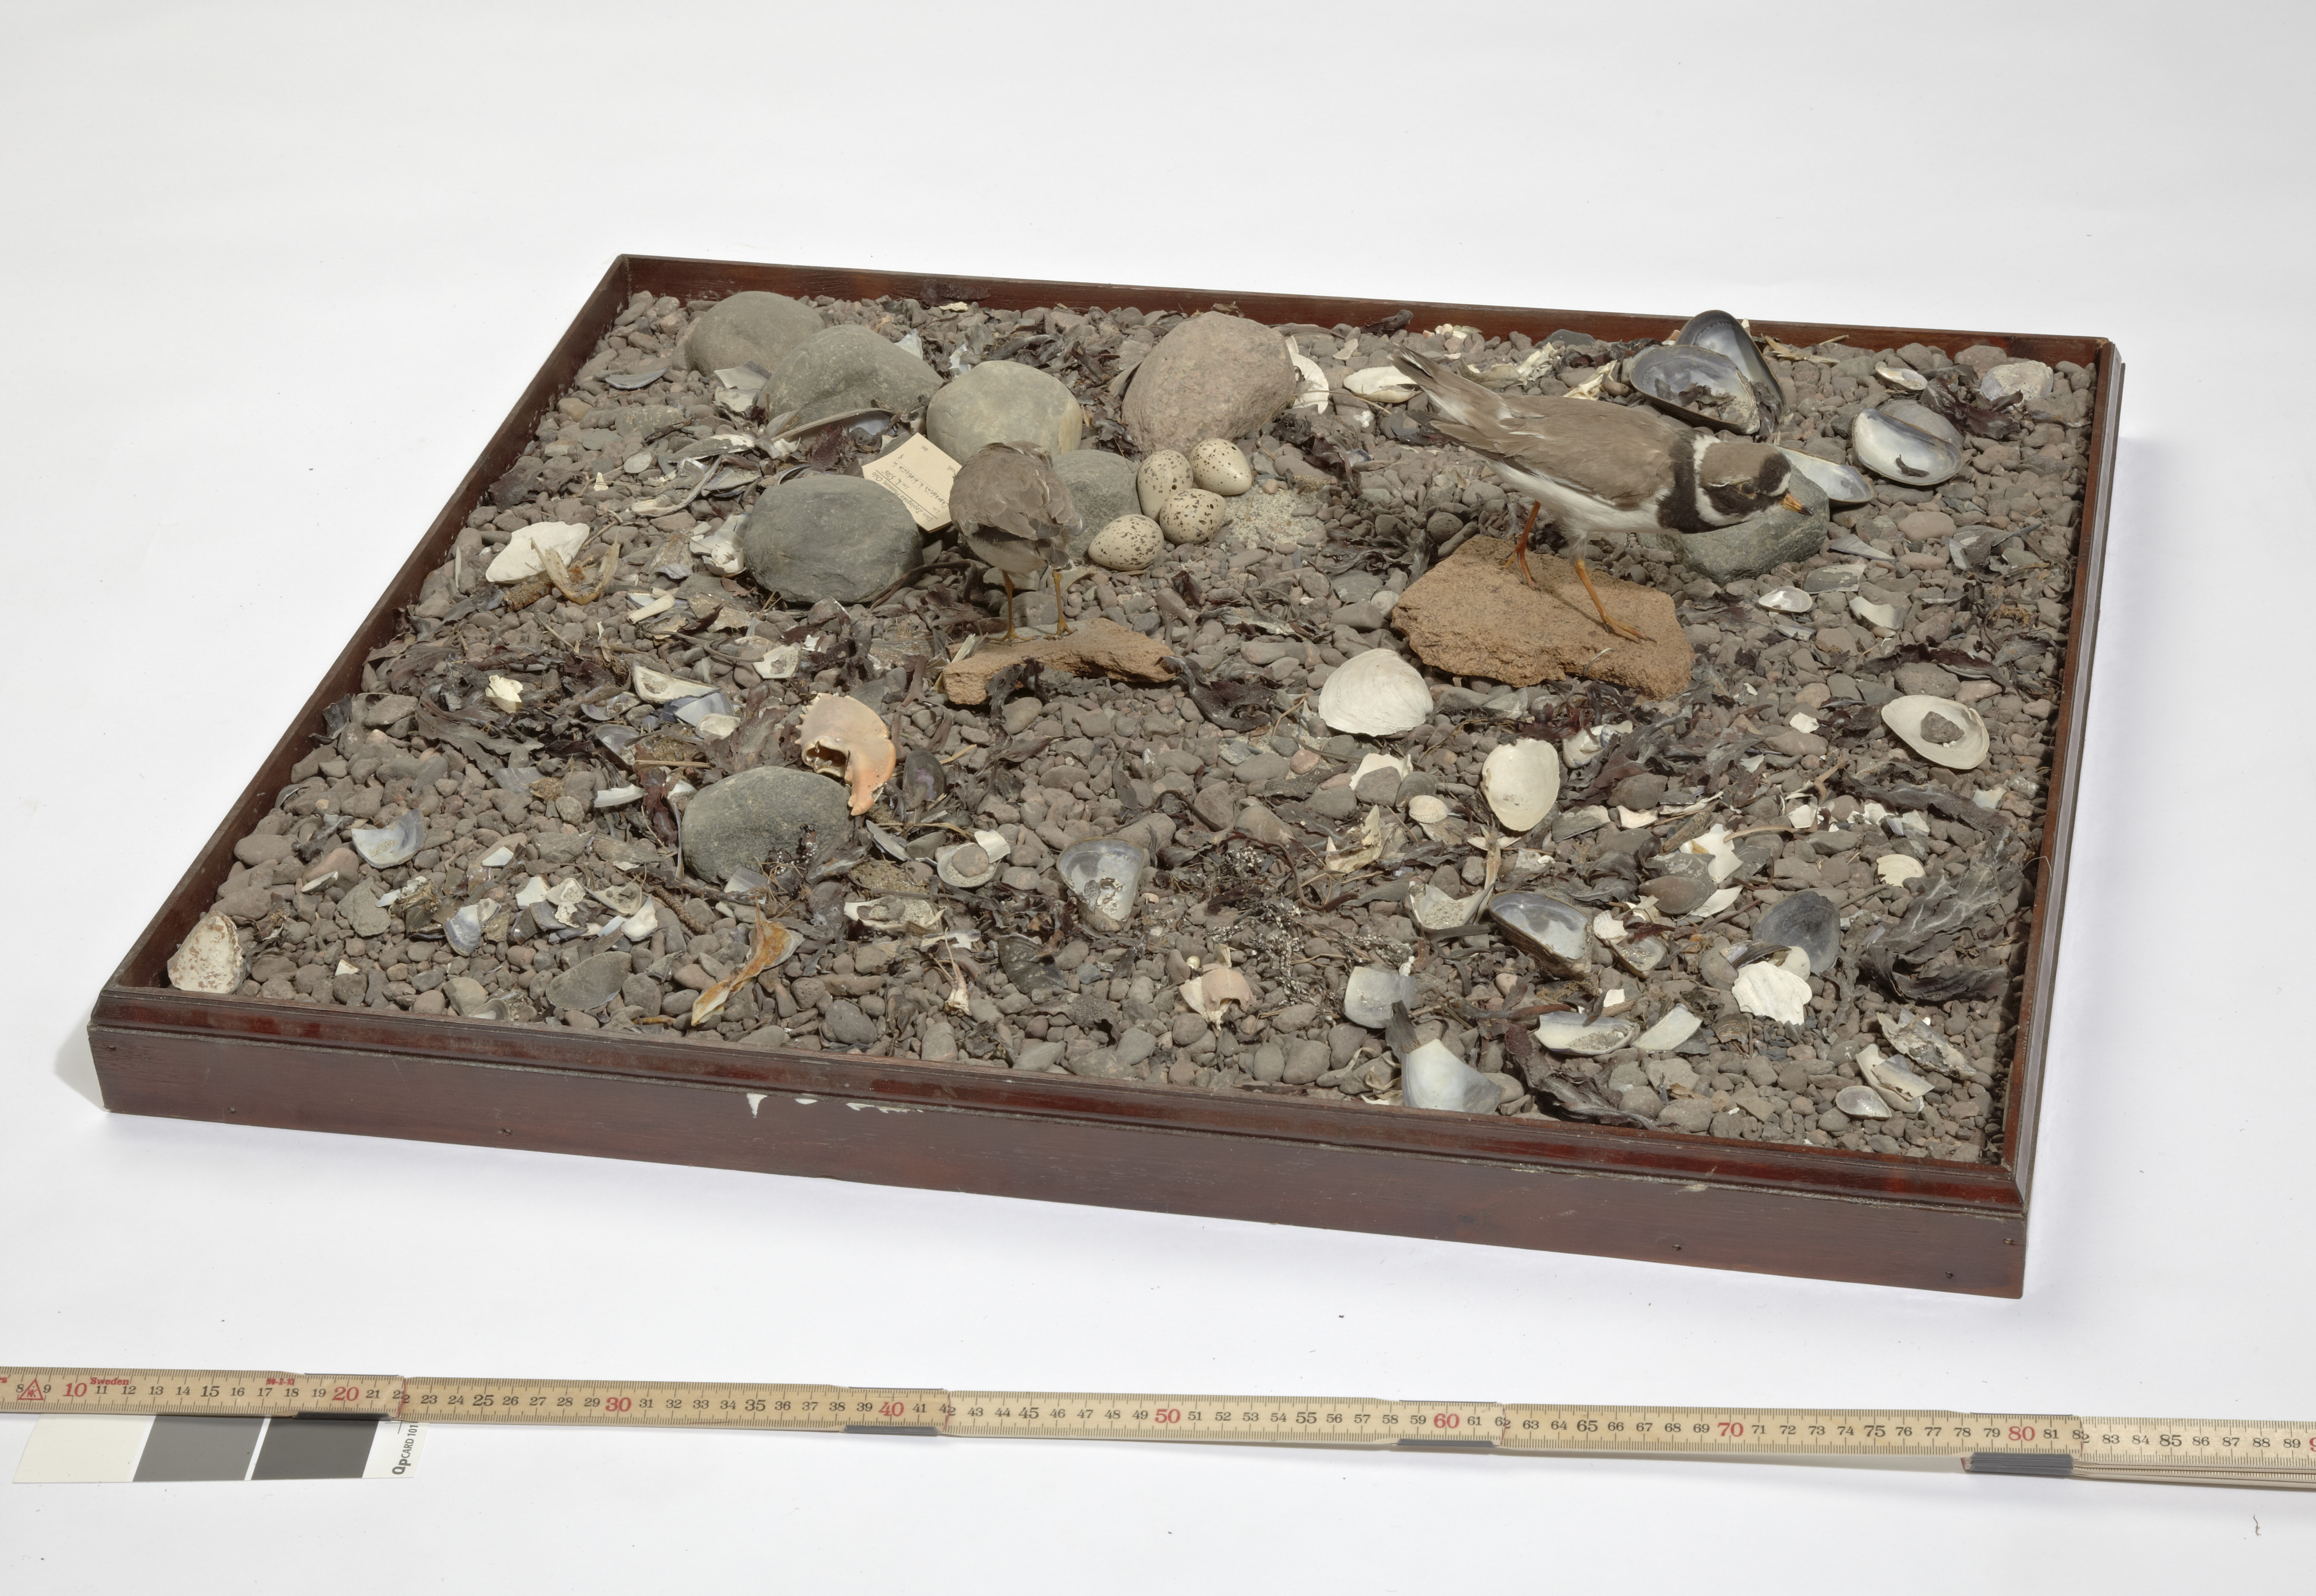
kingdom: Animalia
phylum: Chordata
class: Aves
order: Charadriiformes
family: Charadriidae
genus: Charadrius
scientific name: Charadrius hiaticula
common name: Common ringed plover
